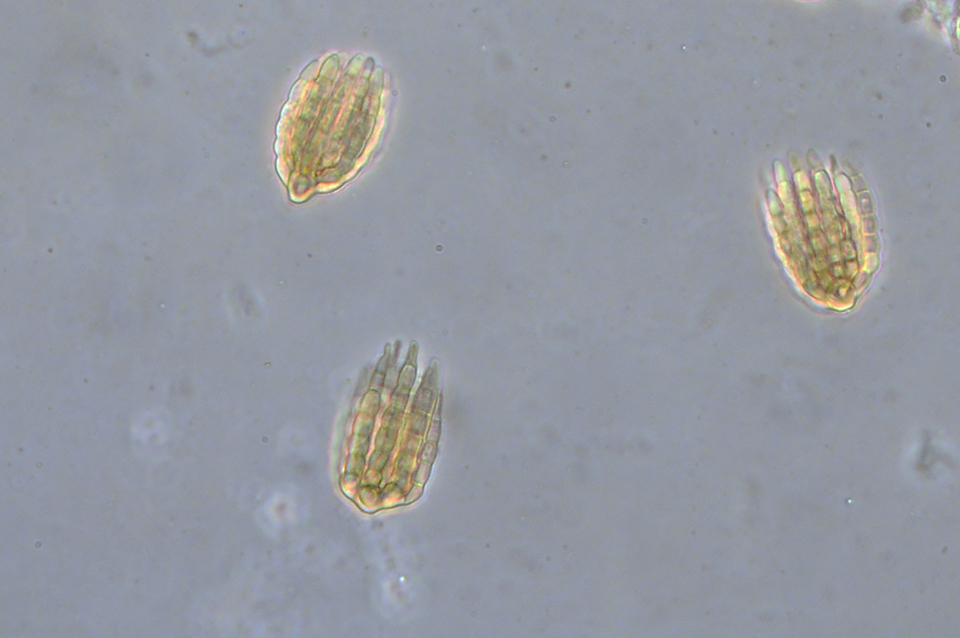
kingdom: Fungi
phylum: Ascomycota
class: Dothideomycetes
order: Pleosporales
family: Cryptocoryneaceae
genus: Cryptocoryneum
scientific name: Cryptocoryneum psammae
